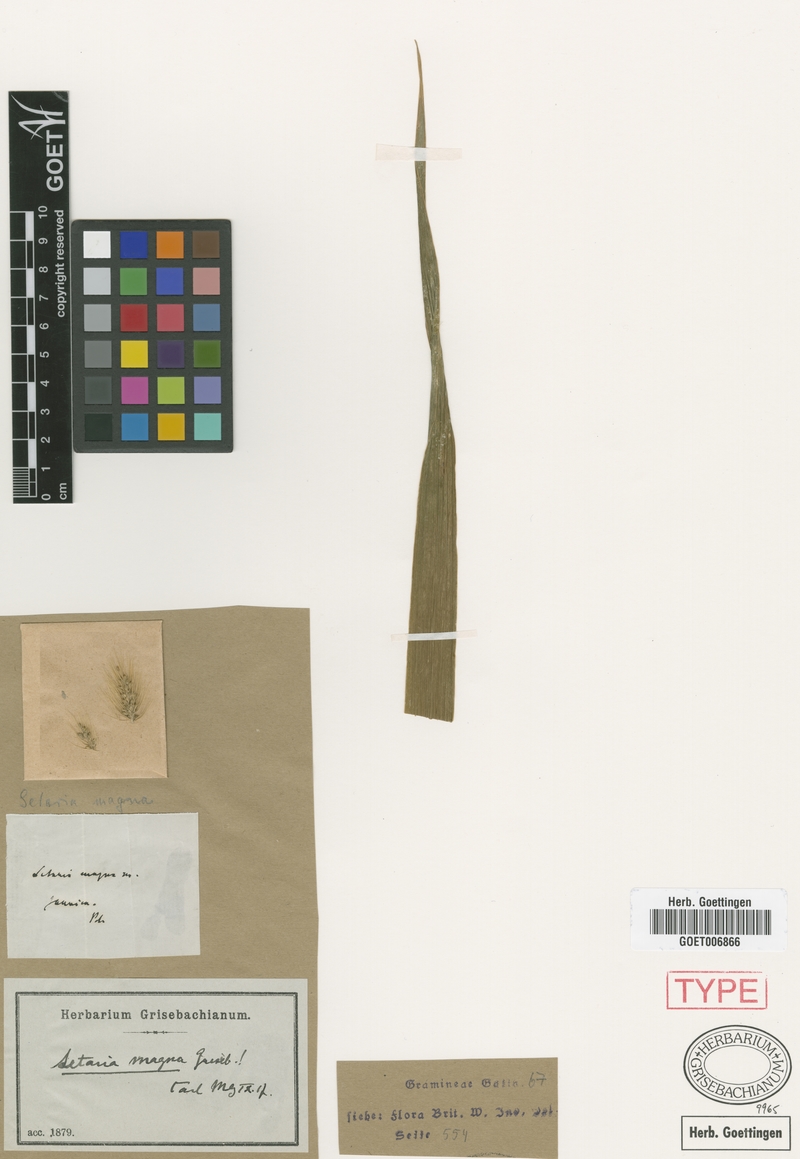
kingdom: Plantae
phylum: Tracheophyta
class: Liliopsida
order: Poales
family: Poaceae
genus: Setaria
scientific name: Setaria magna
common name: Giant bristle grass
